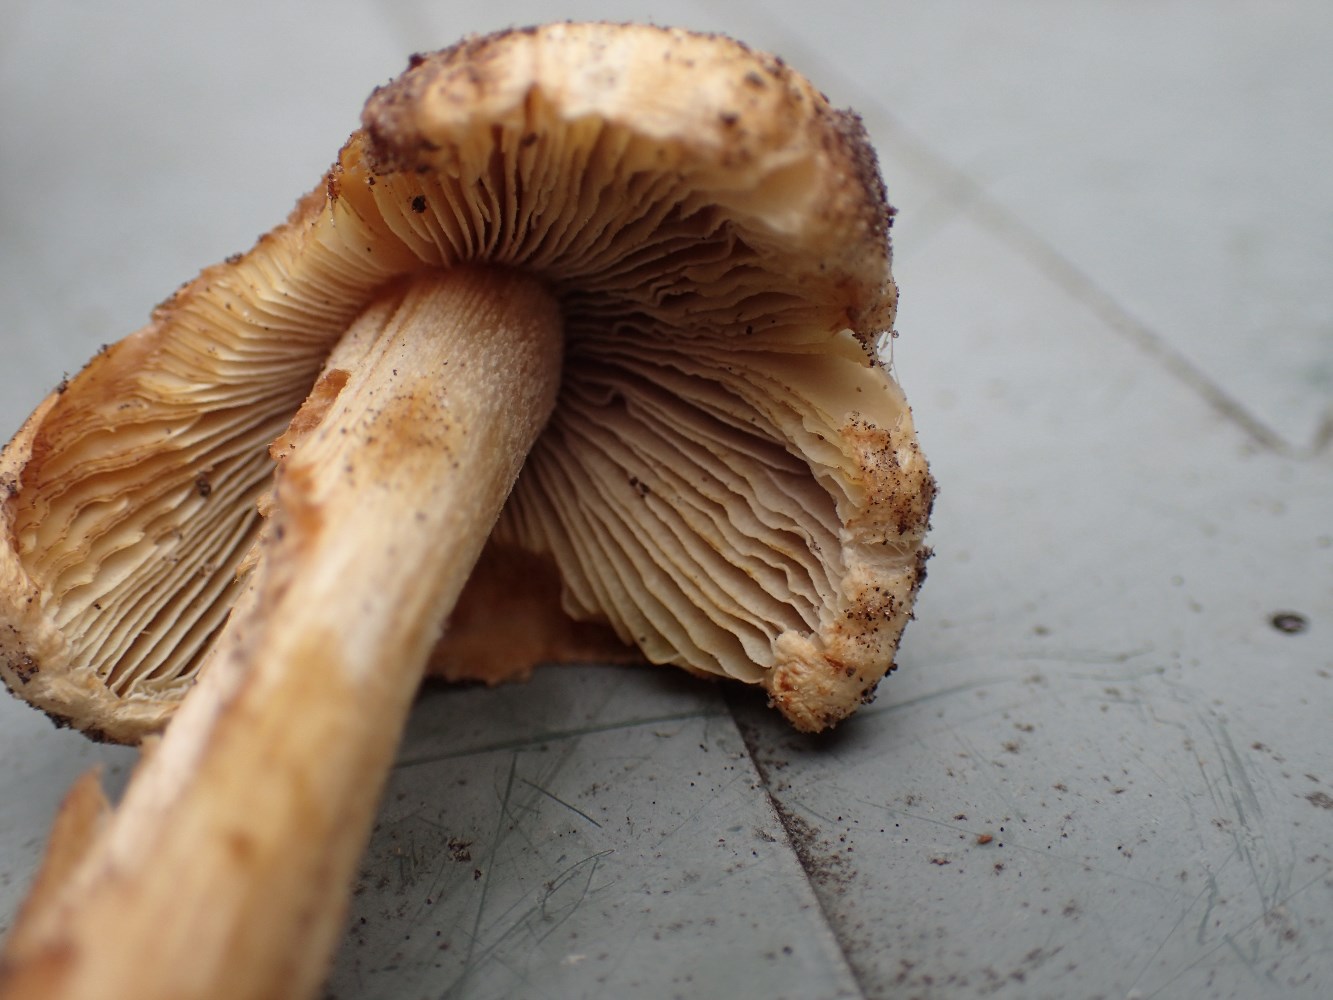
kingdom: Fungi
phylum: Basidiomycota
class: Agaricomycetes
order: Agaricales
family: Inocybaceae
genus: Inocybe
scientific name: Inocybe
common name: trævlhat
